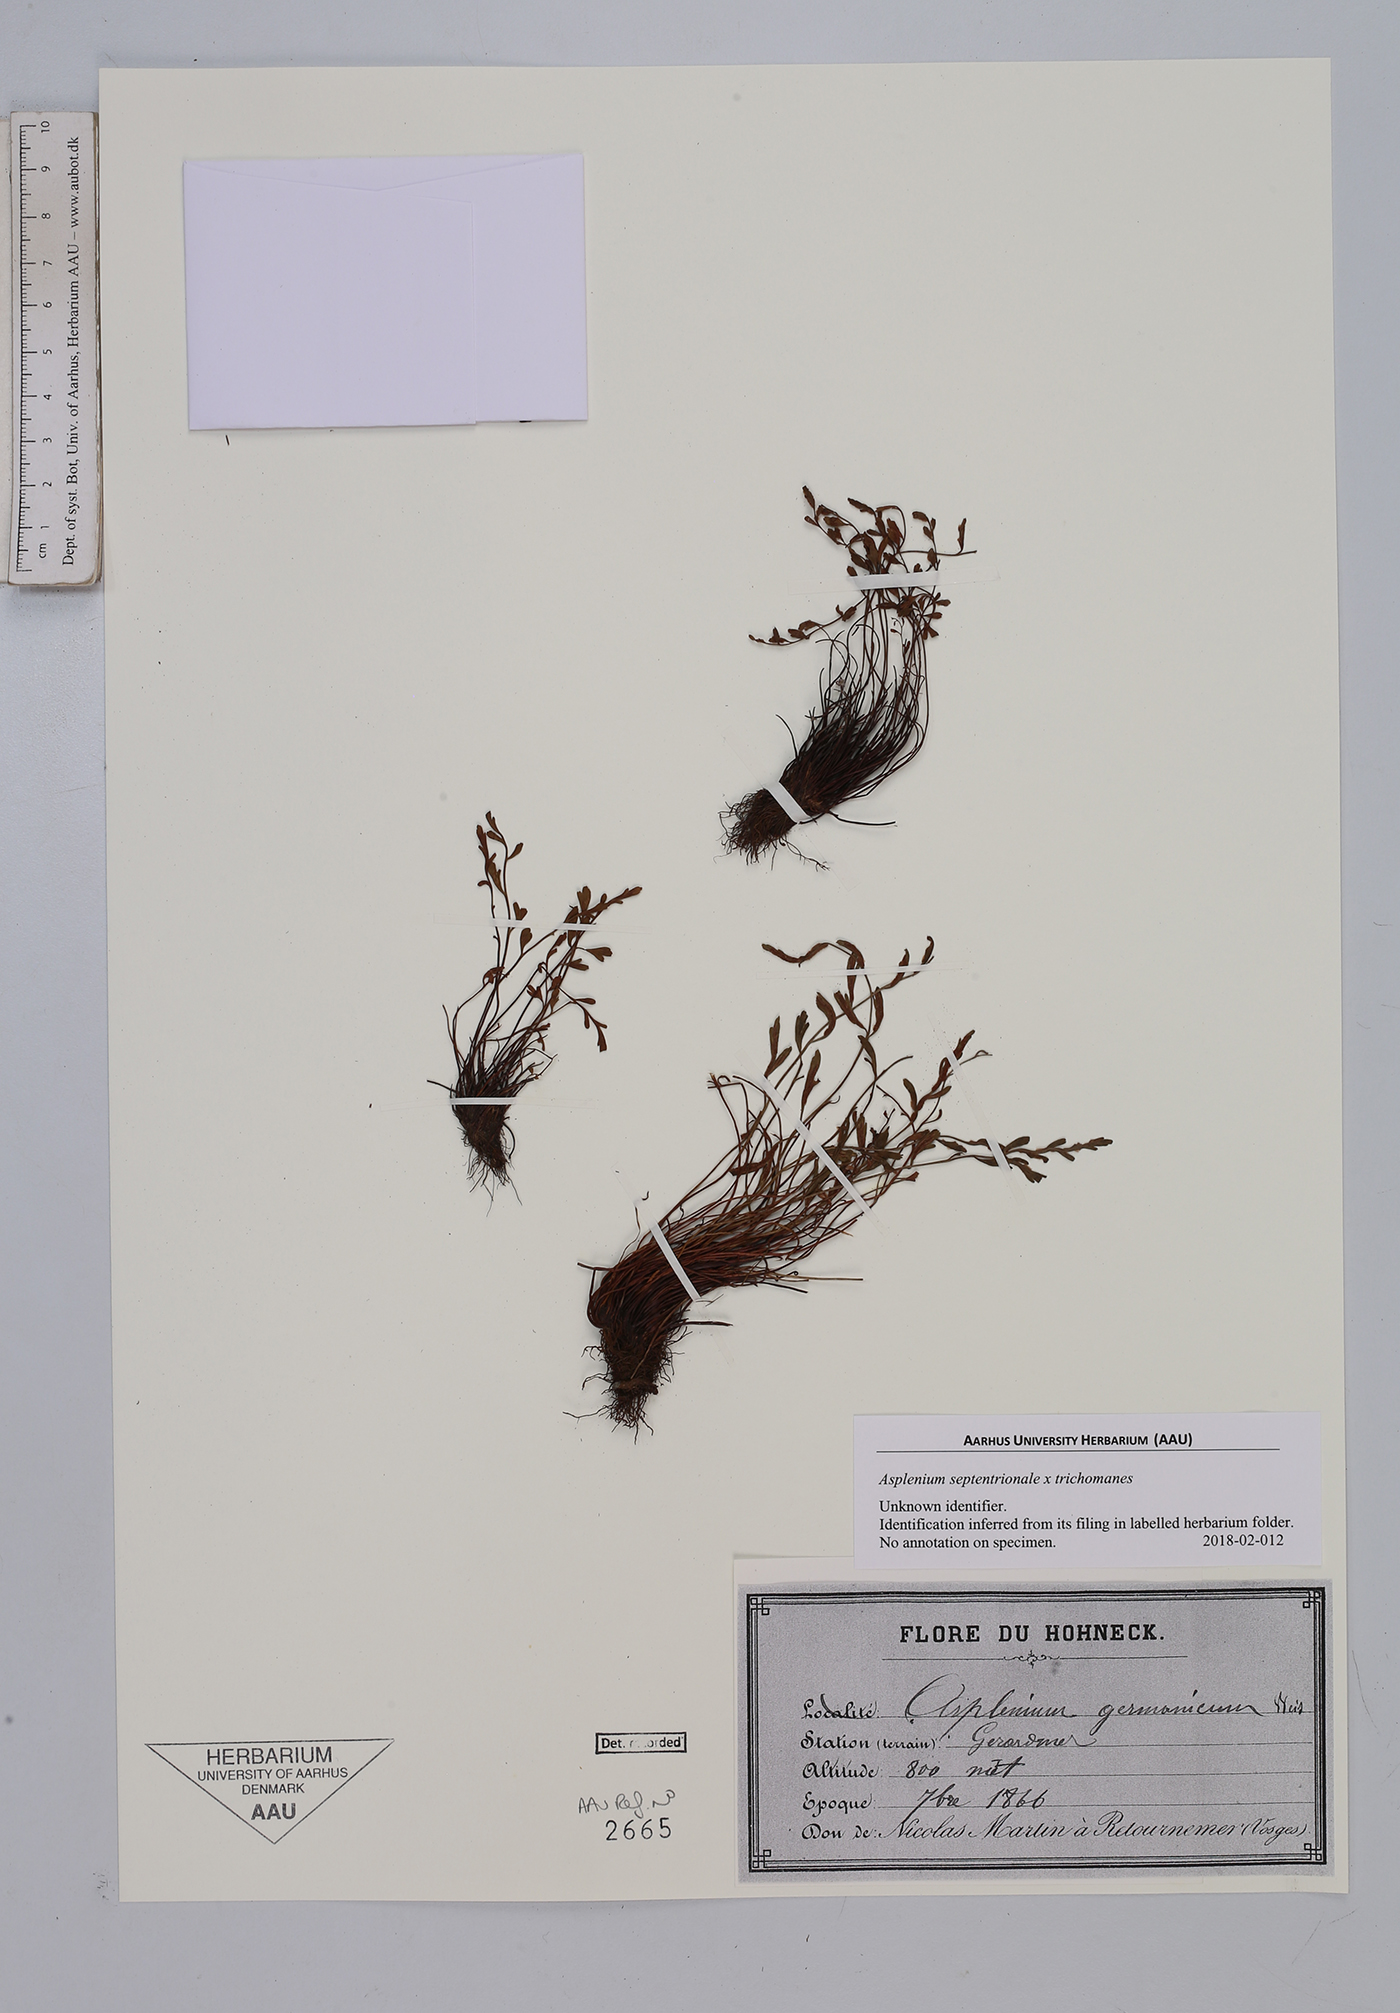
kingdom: Plantae
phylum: Tracheophyta
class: Polypodiopsida
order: Polypodiales
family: Aspleniaceae
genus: Asplenium
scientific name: Asplenium
